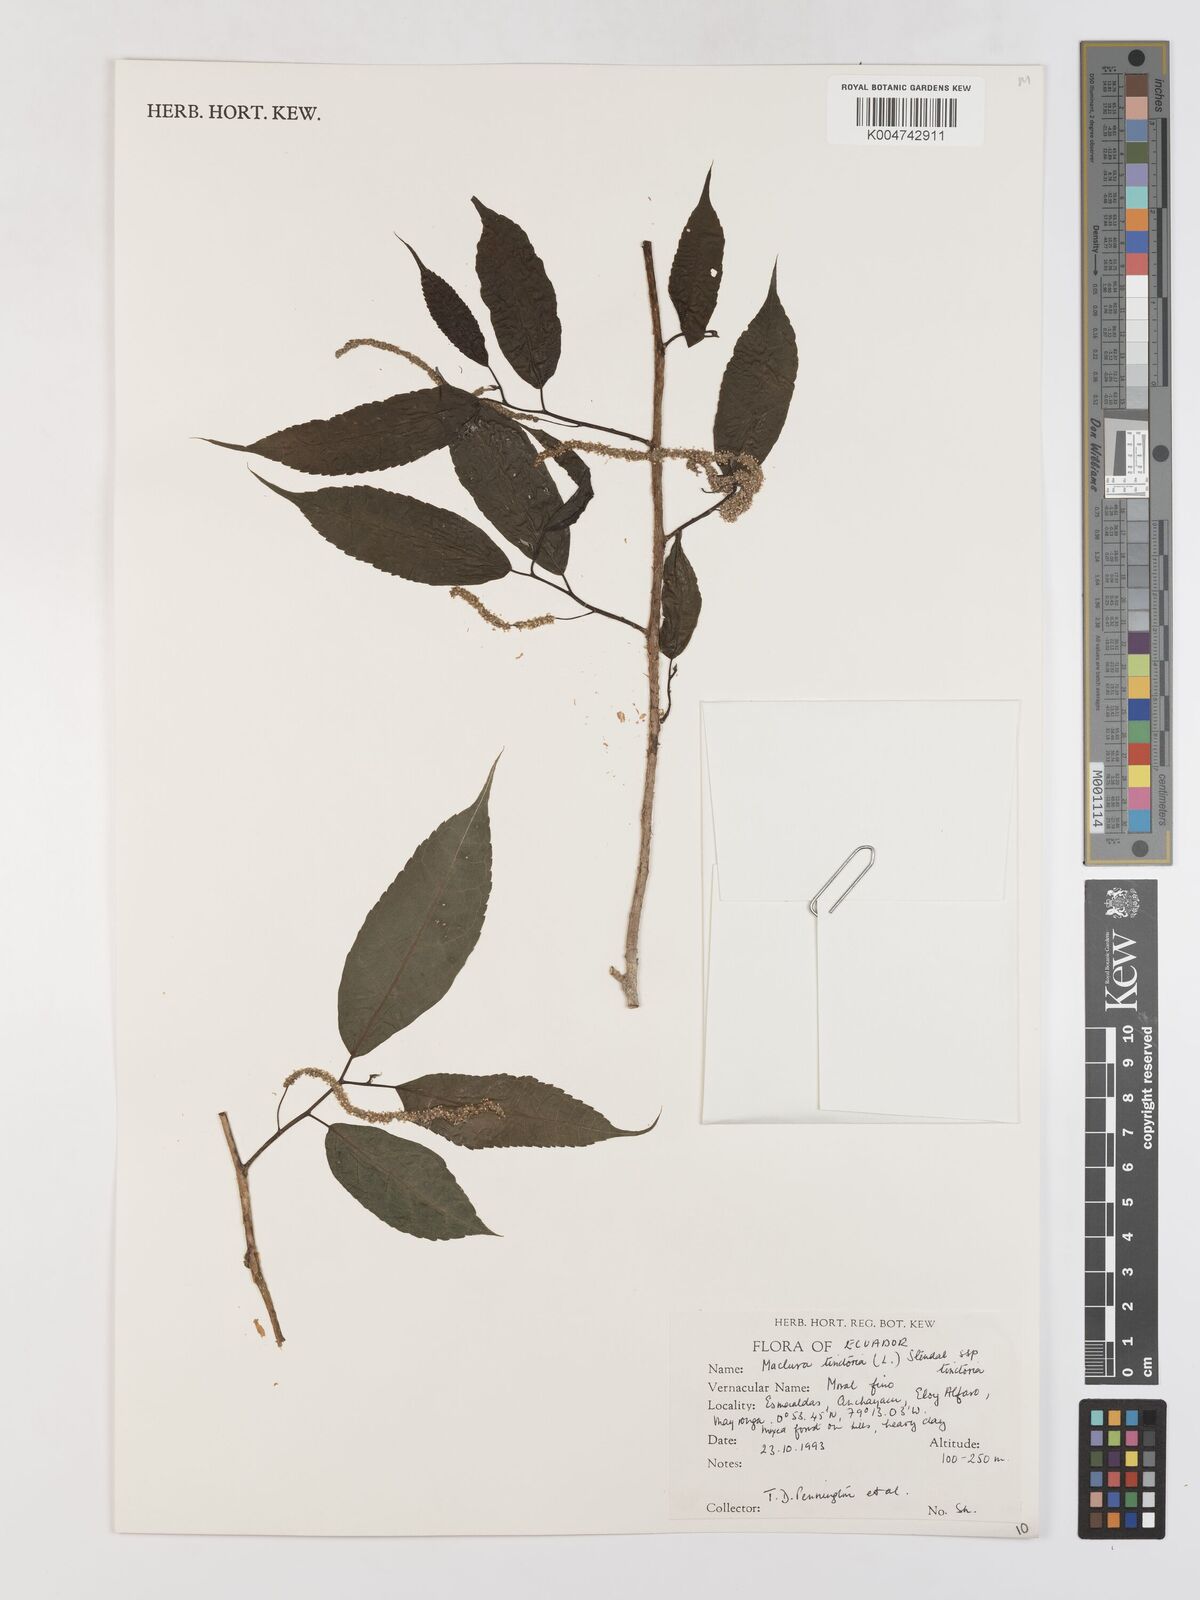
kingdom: Plantae
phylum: Tracheophyta
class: Magnoliopsida
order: Rosales
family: Moraceae
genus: Maclura
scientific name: Maclura tinctoria
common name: Old fustic
